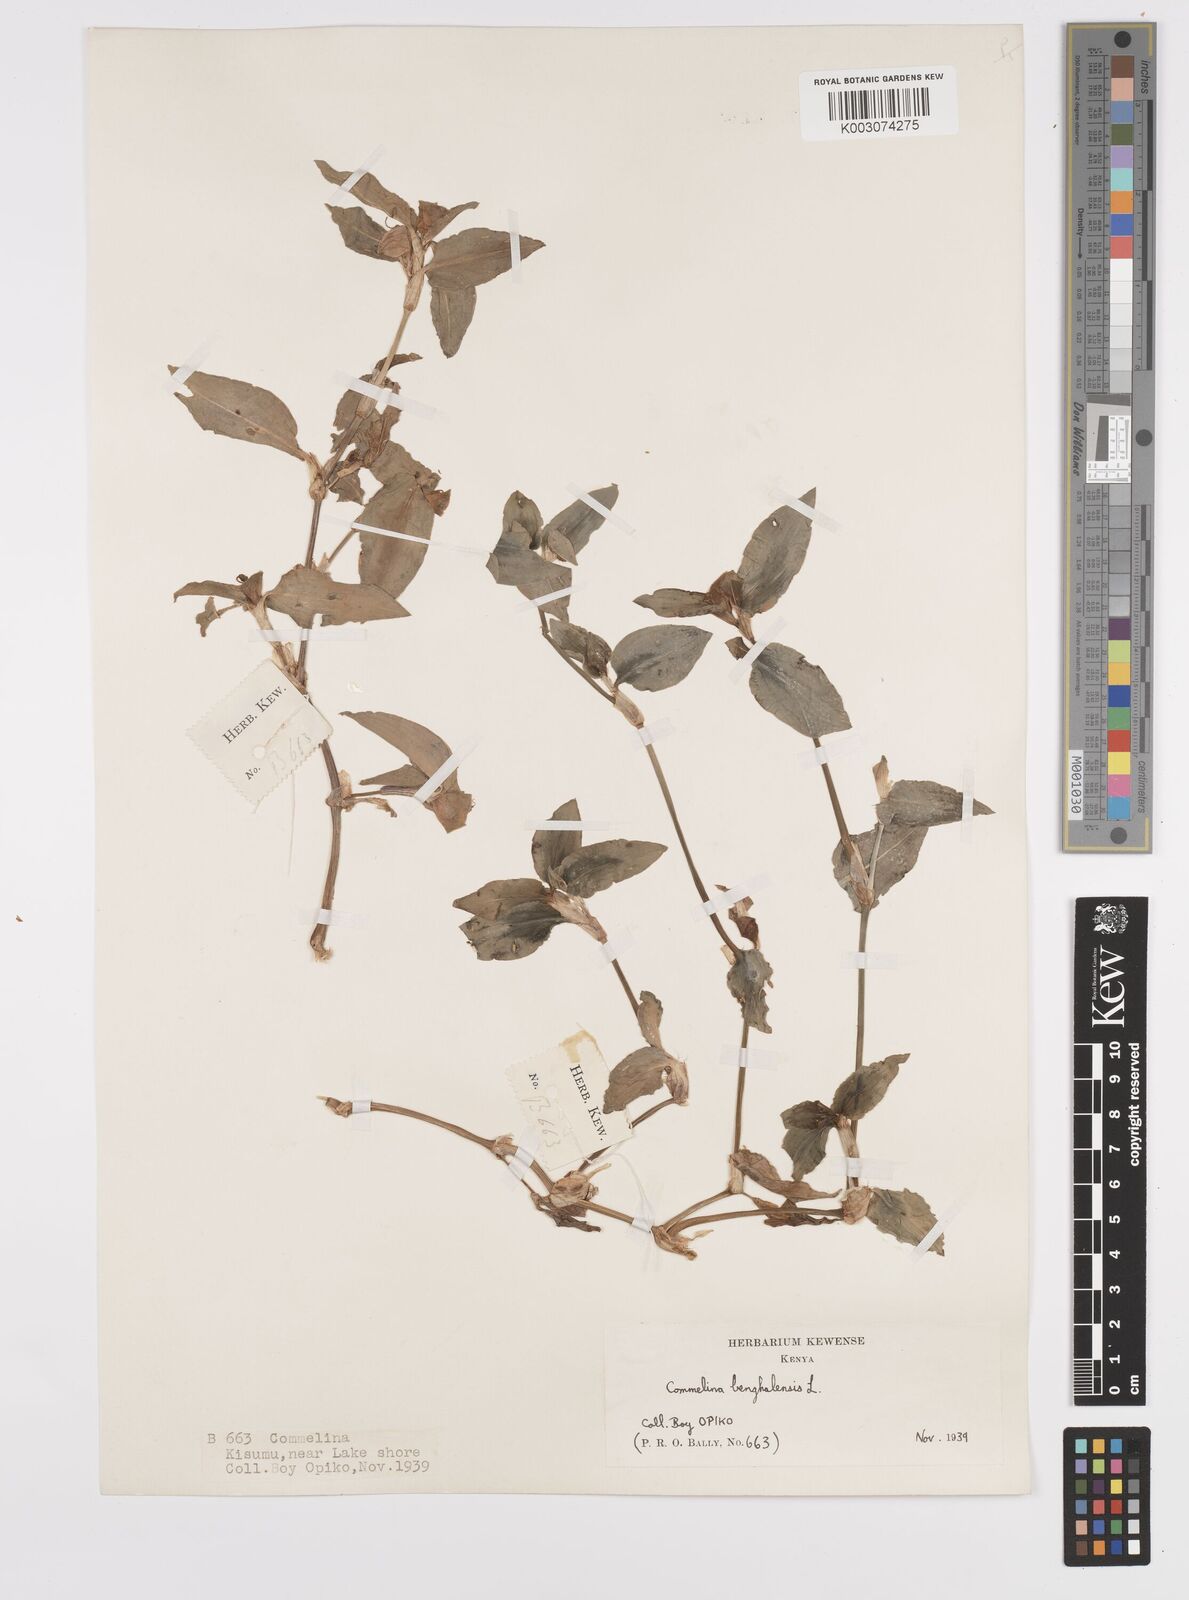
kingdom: Plantae
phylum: Tracheophyta
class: Liliopsida
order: Commelinales
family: Commelinaceae
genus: Commelina
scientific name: Commelina benghalensis
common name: Jio
